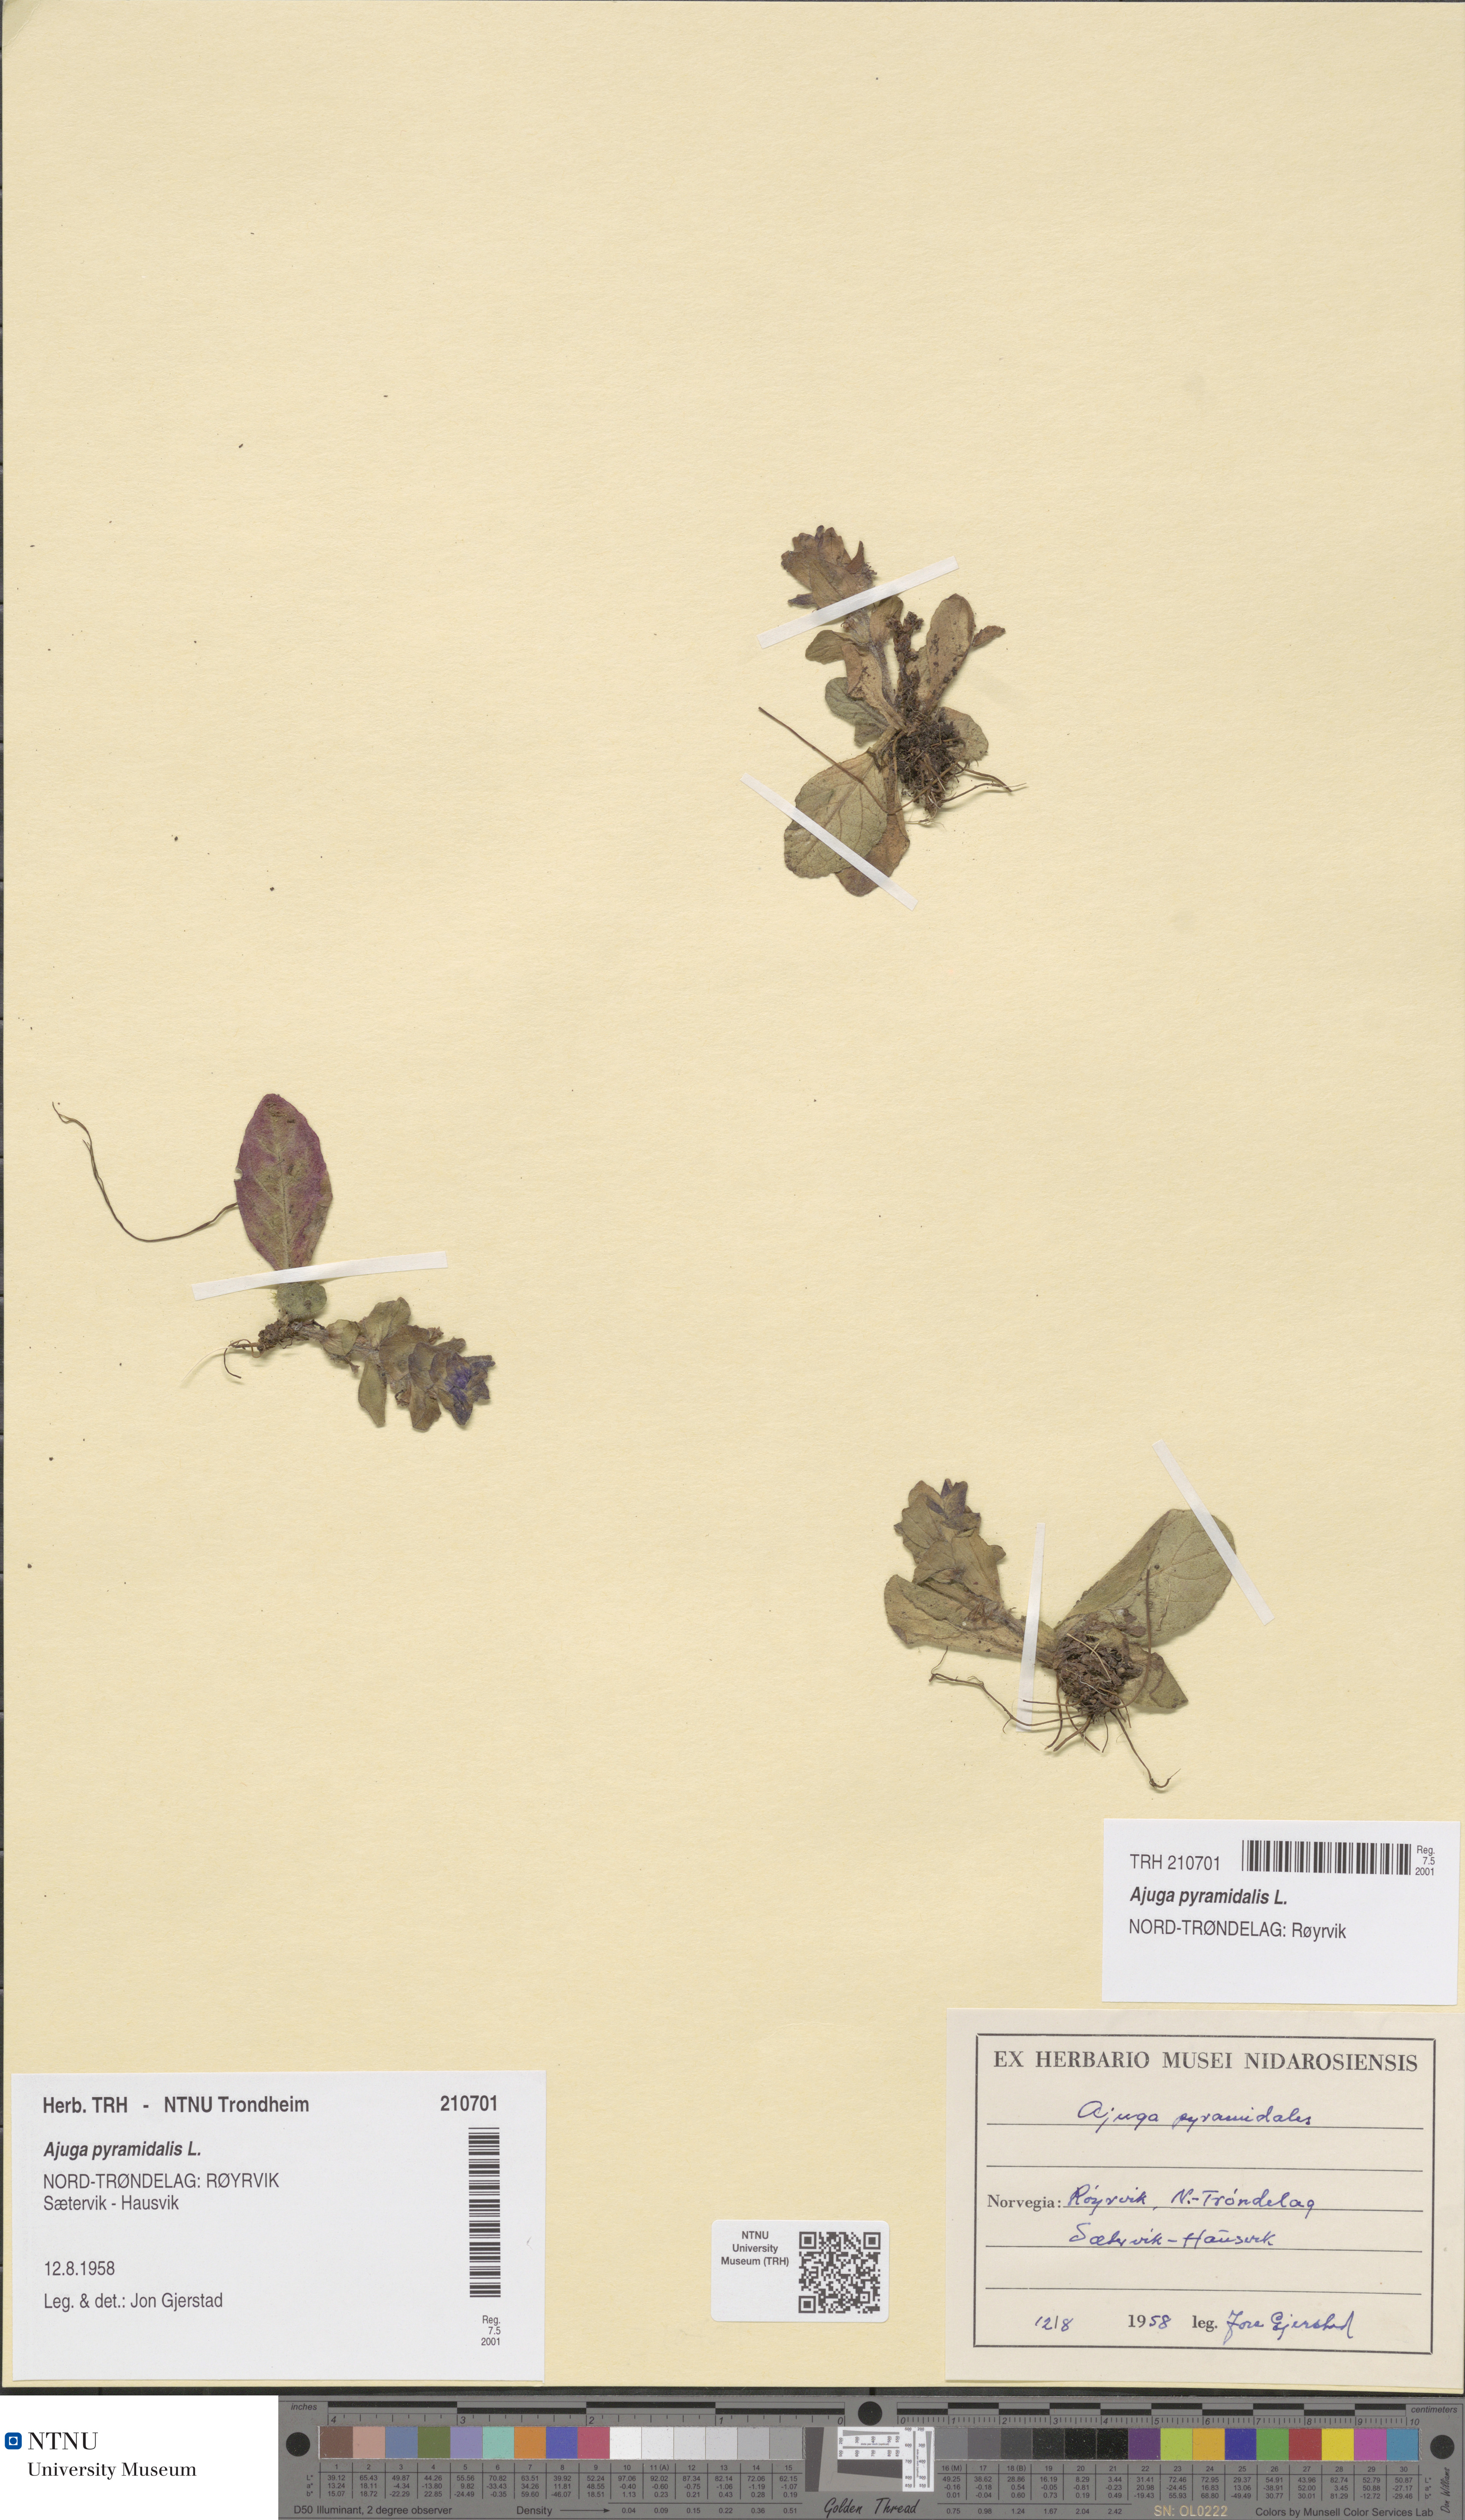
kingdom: Plantae
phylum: Tracheophyta
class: Magnoliopsida
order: Lamiales
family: Lamiaceae
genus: Ajuga
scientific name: Ajuga pyramidalis
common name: Pyramid bugle
